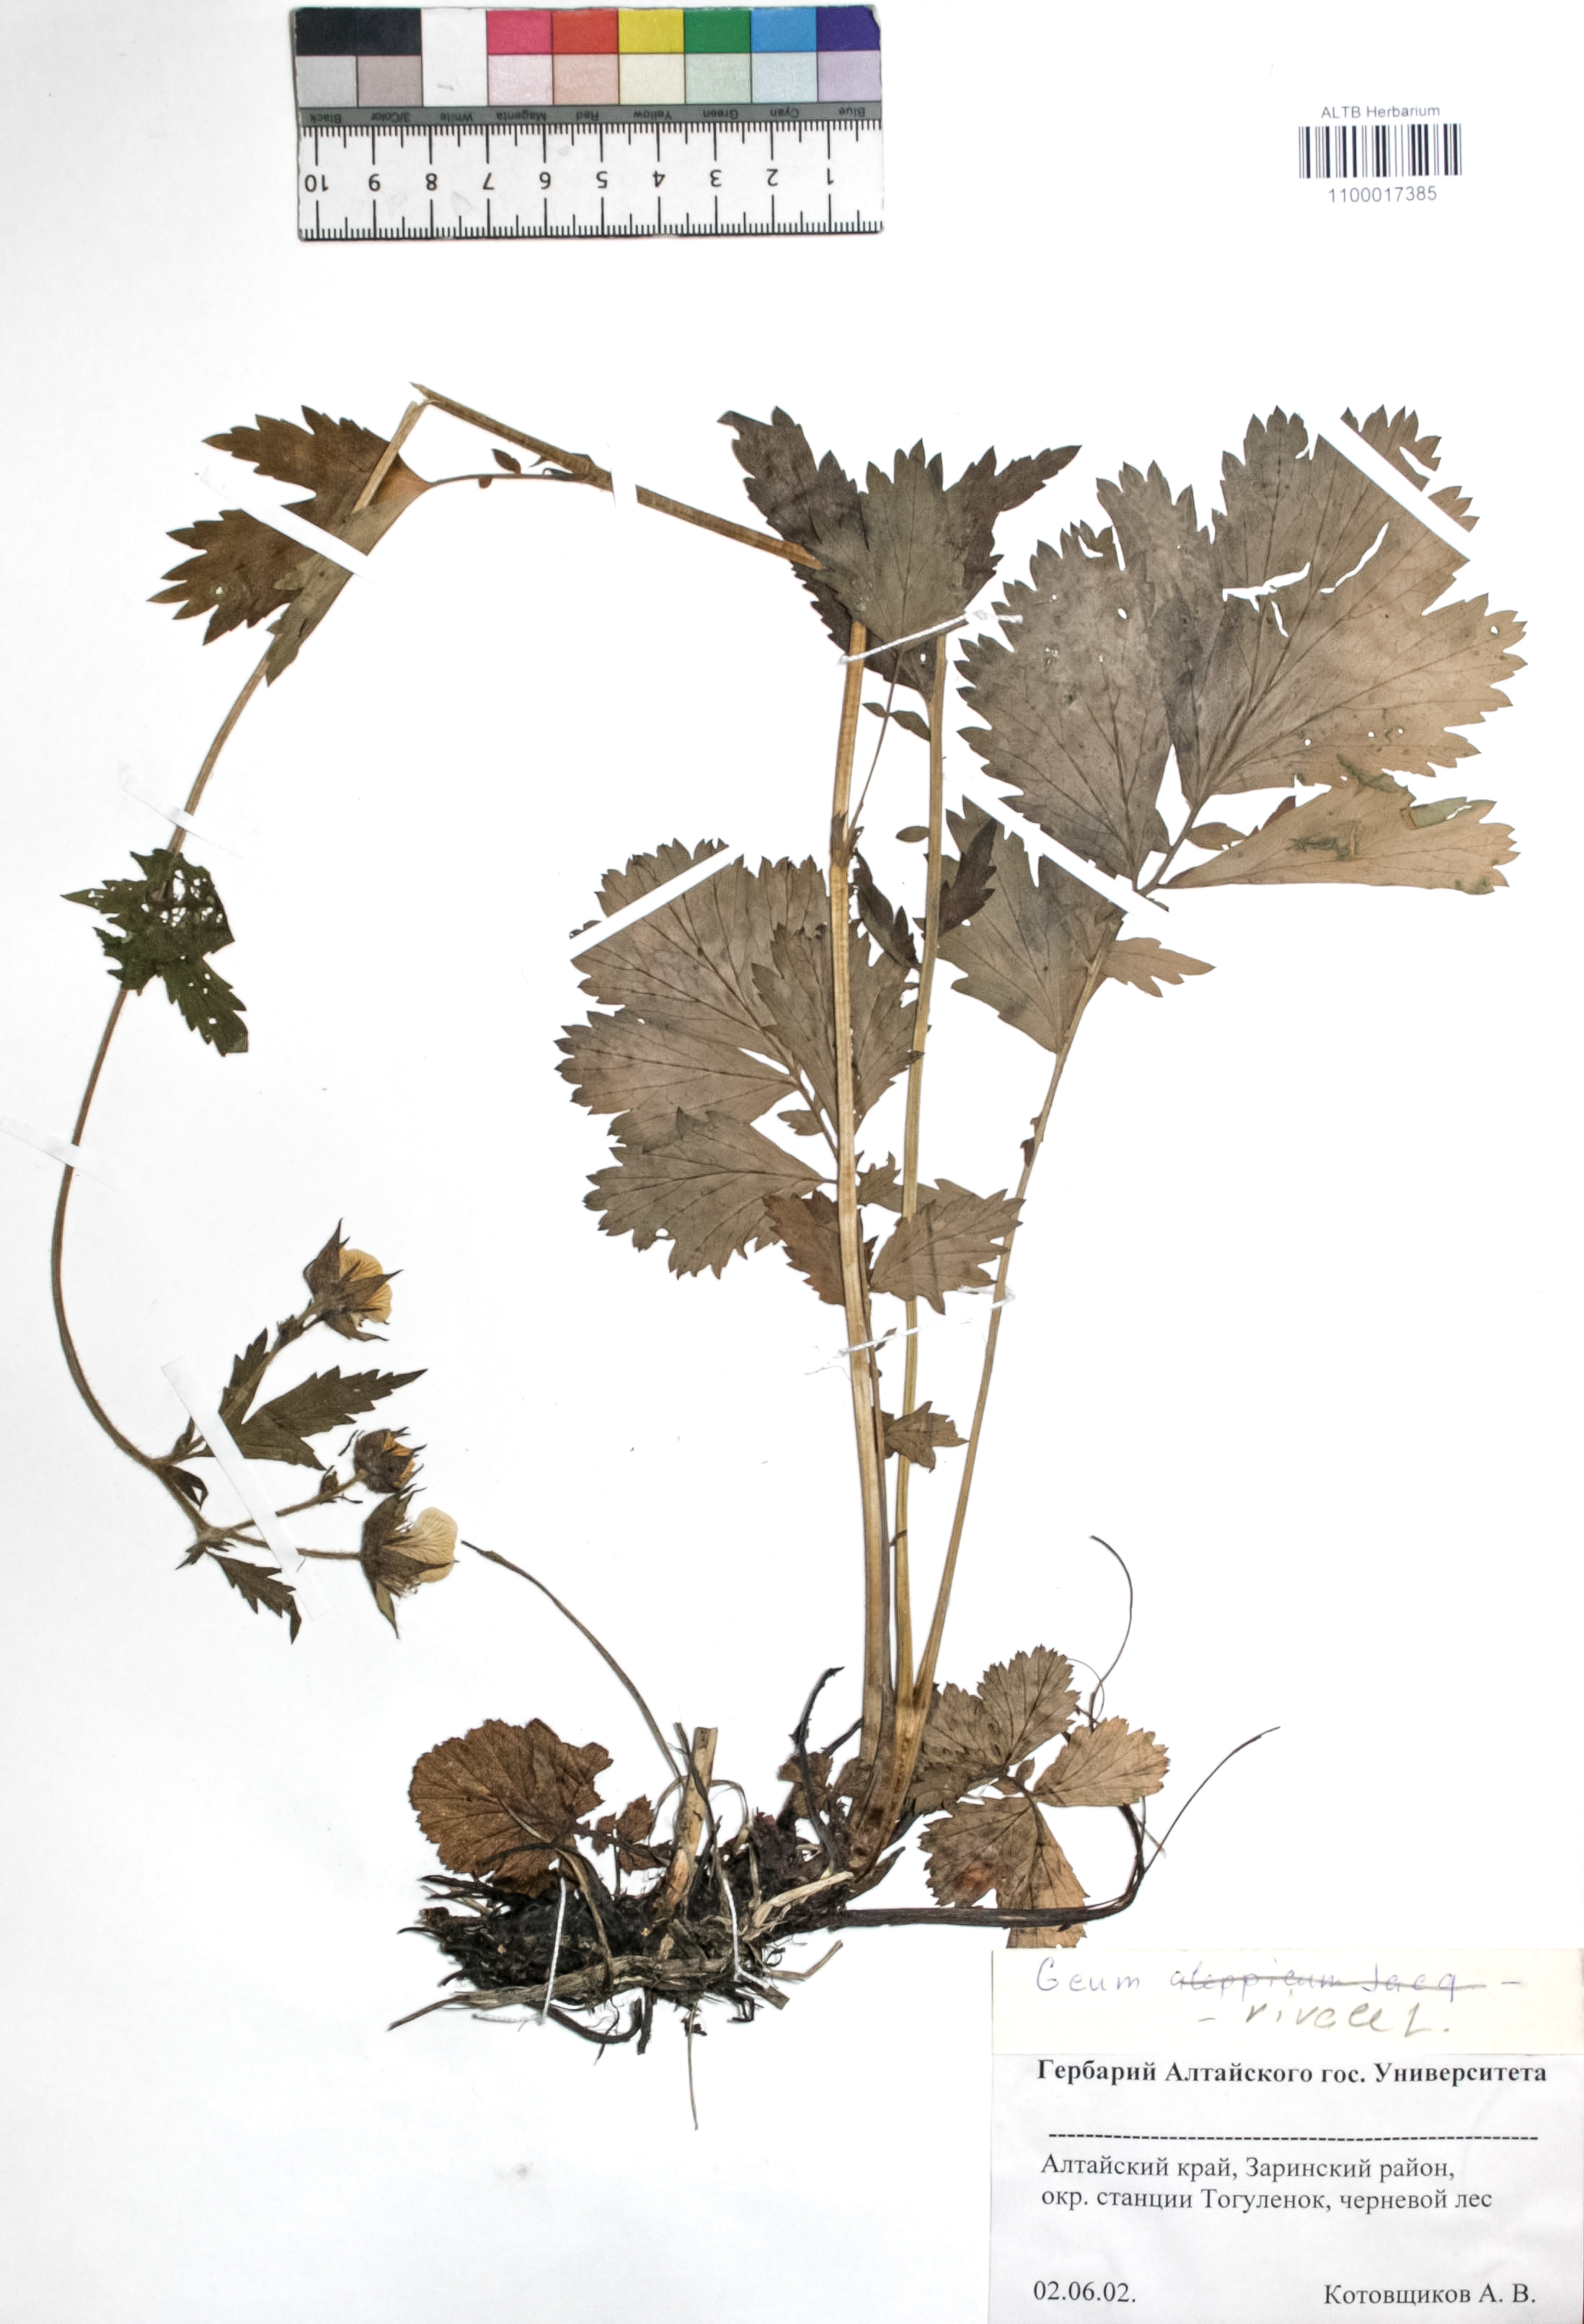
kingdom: Plantae
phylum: Tracheophyta
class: Magnoliopsida
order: Rosales
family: Rosaceae
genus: Geum
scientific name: Geum rivale
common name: Water avens
